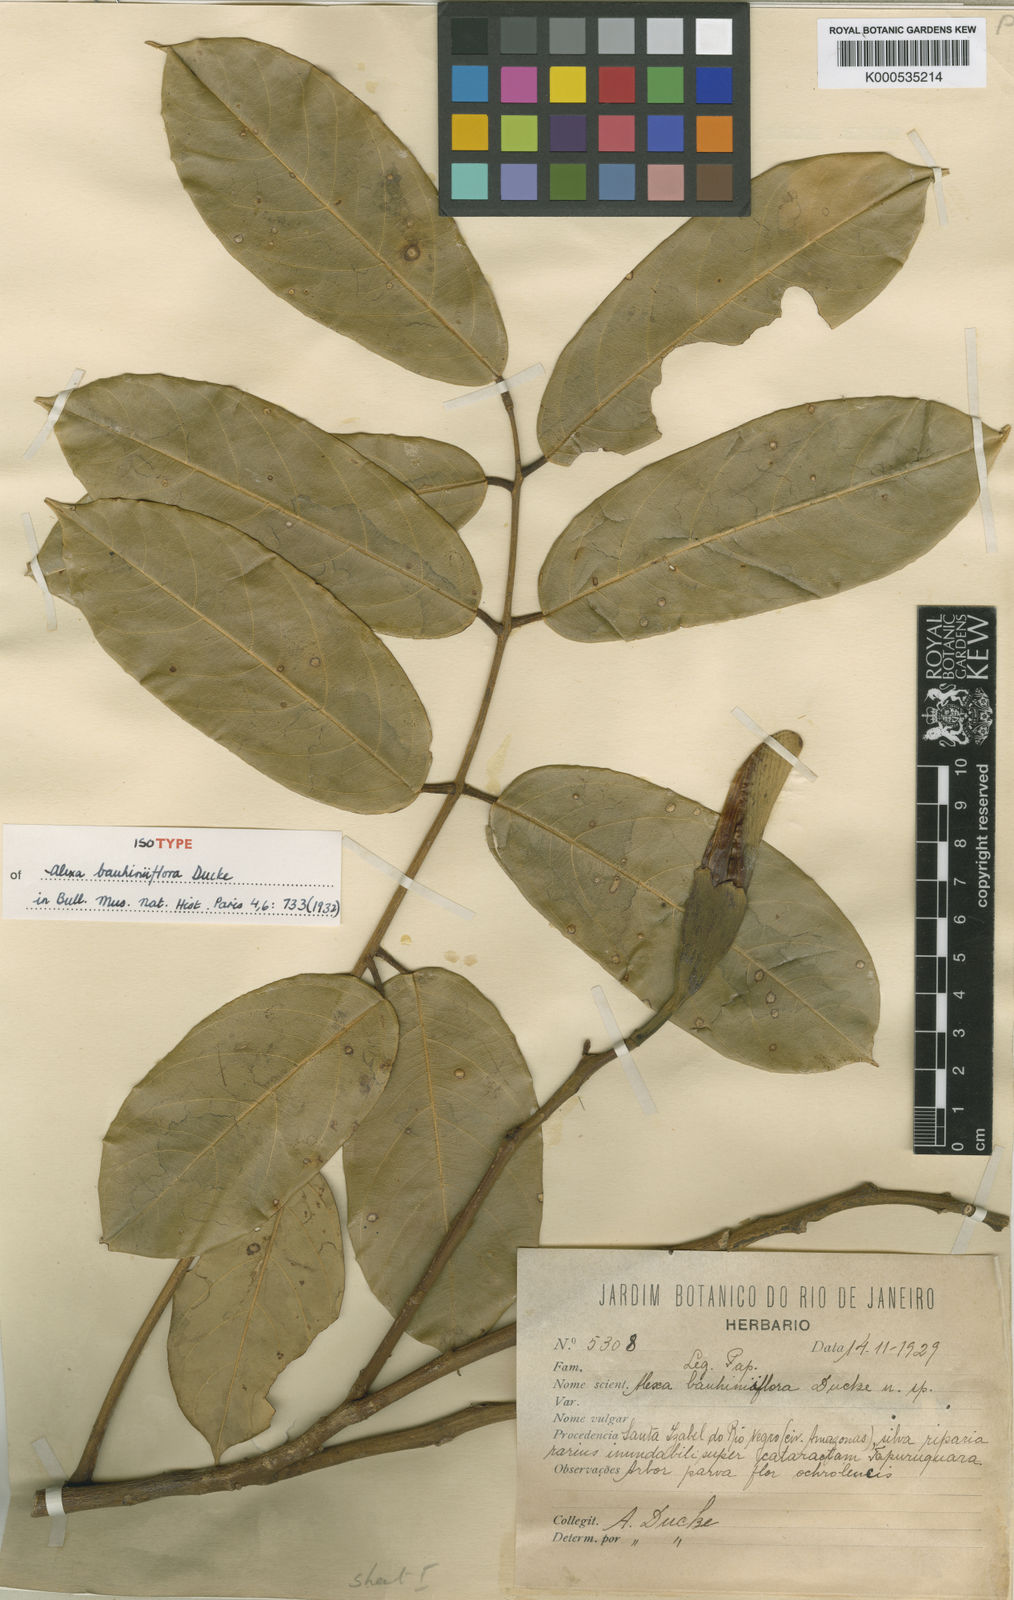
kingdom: Plantae
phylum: Tracheophyta
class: Magnoliopsida
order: Fabales
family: Fabaceae
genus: Alexa
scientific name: Alexa bauhiniiflora
